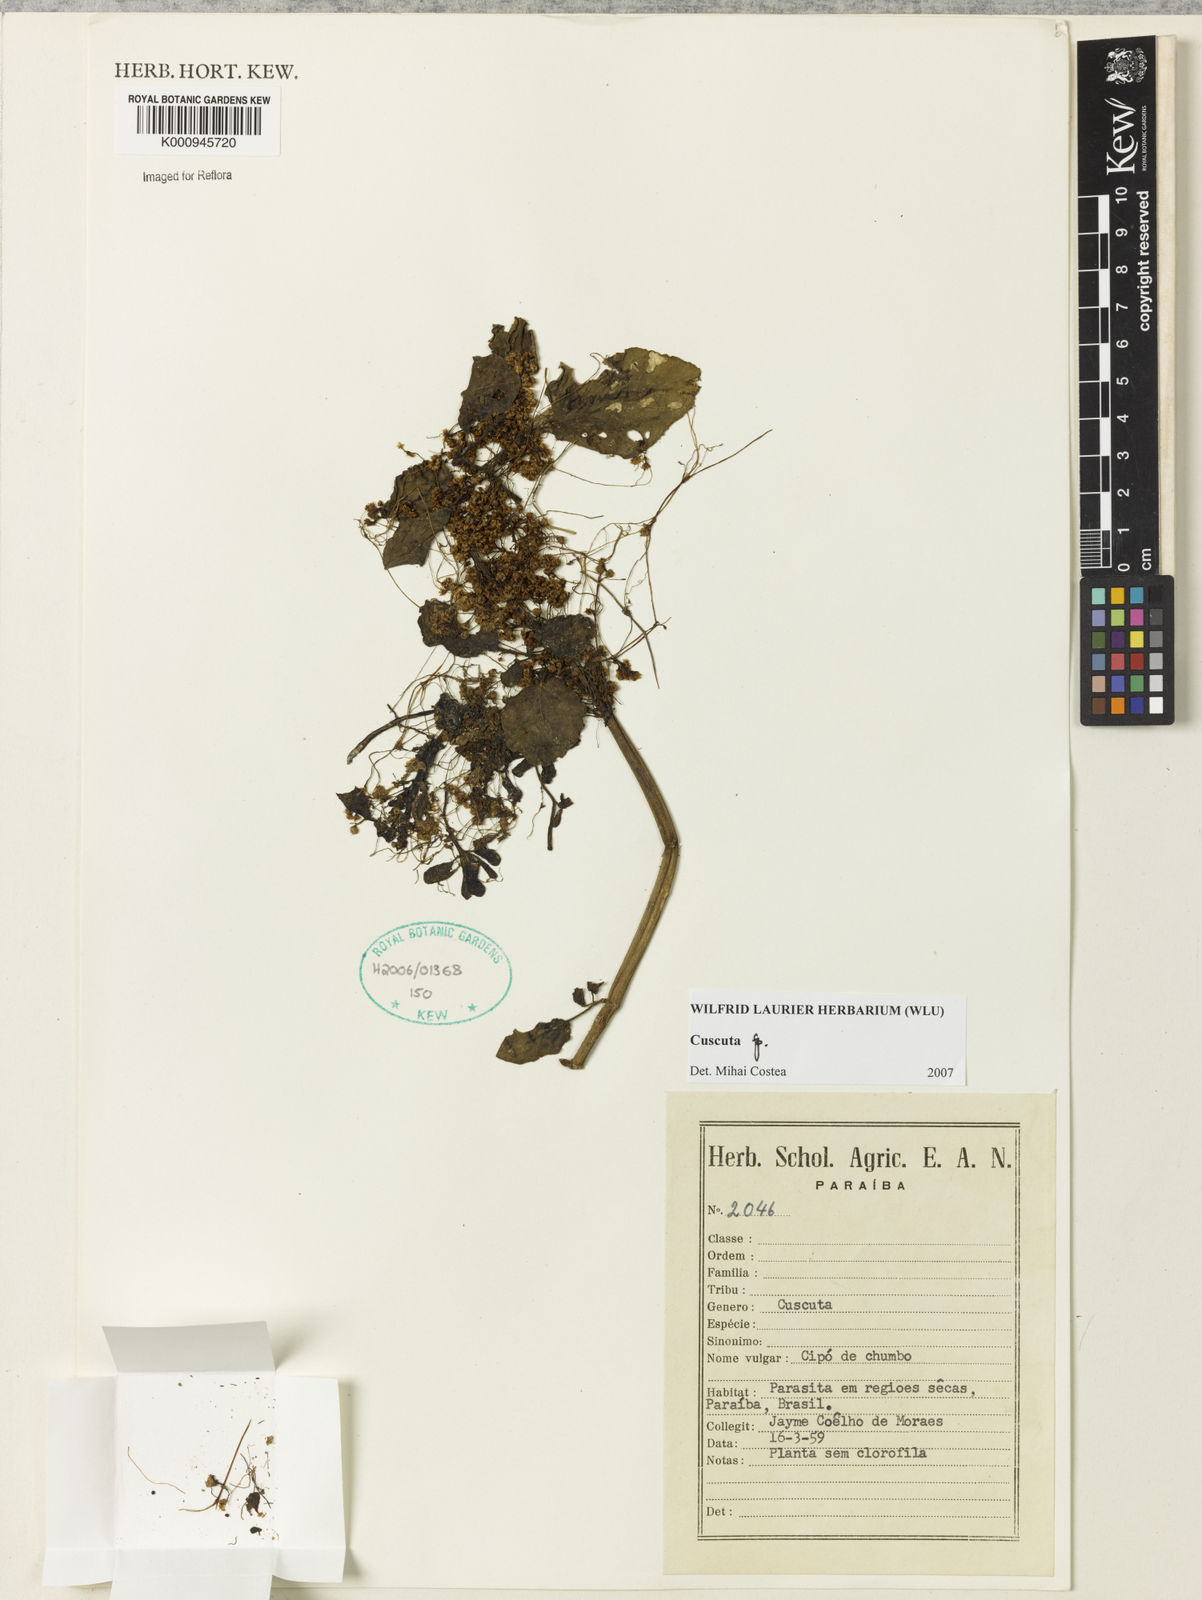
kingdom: Plantae
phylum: Tracheophyta
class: Magnoliopsida
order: Solanales
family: Convolvulaceae
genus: Cuscuta
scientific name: Cuscuta
